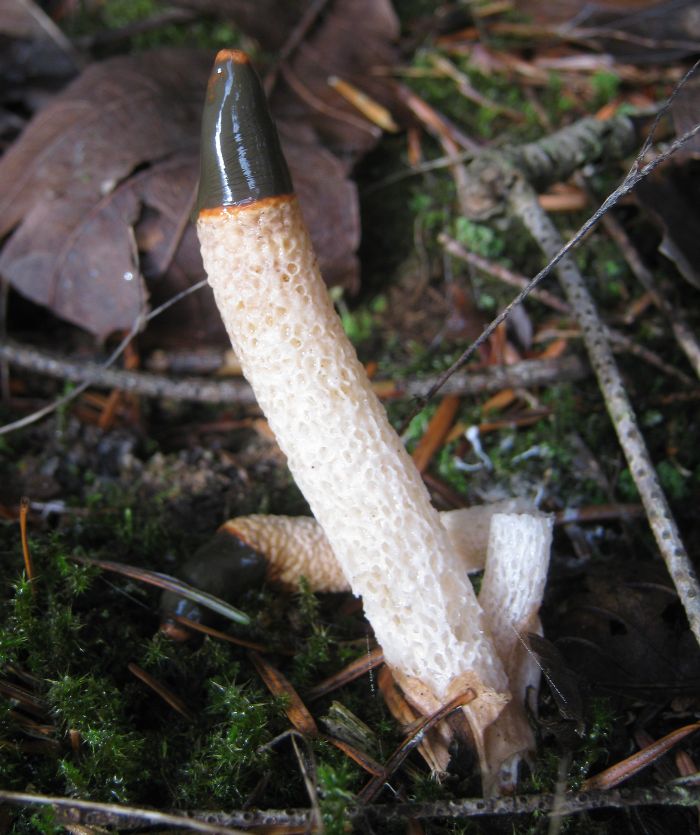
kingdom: Fungi
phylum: Basidiomycota
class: Agaricomycetes
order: Phallales
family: Phallaceae
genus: Mutinus
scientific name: Mutinus caninus
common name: hunde-stinksvamp
